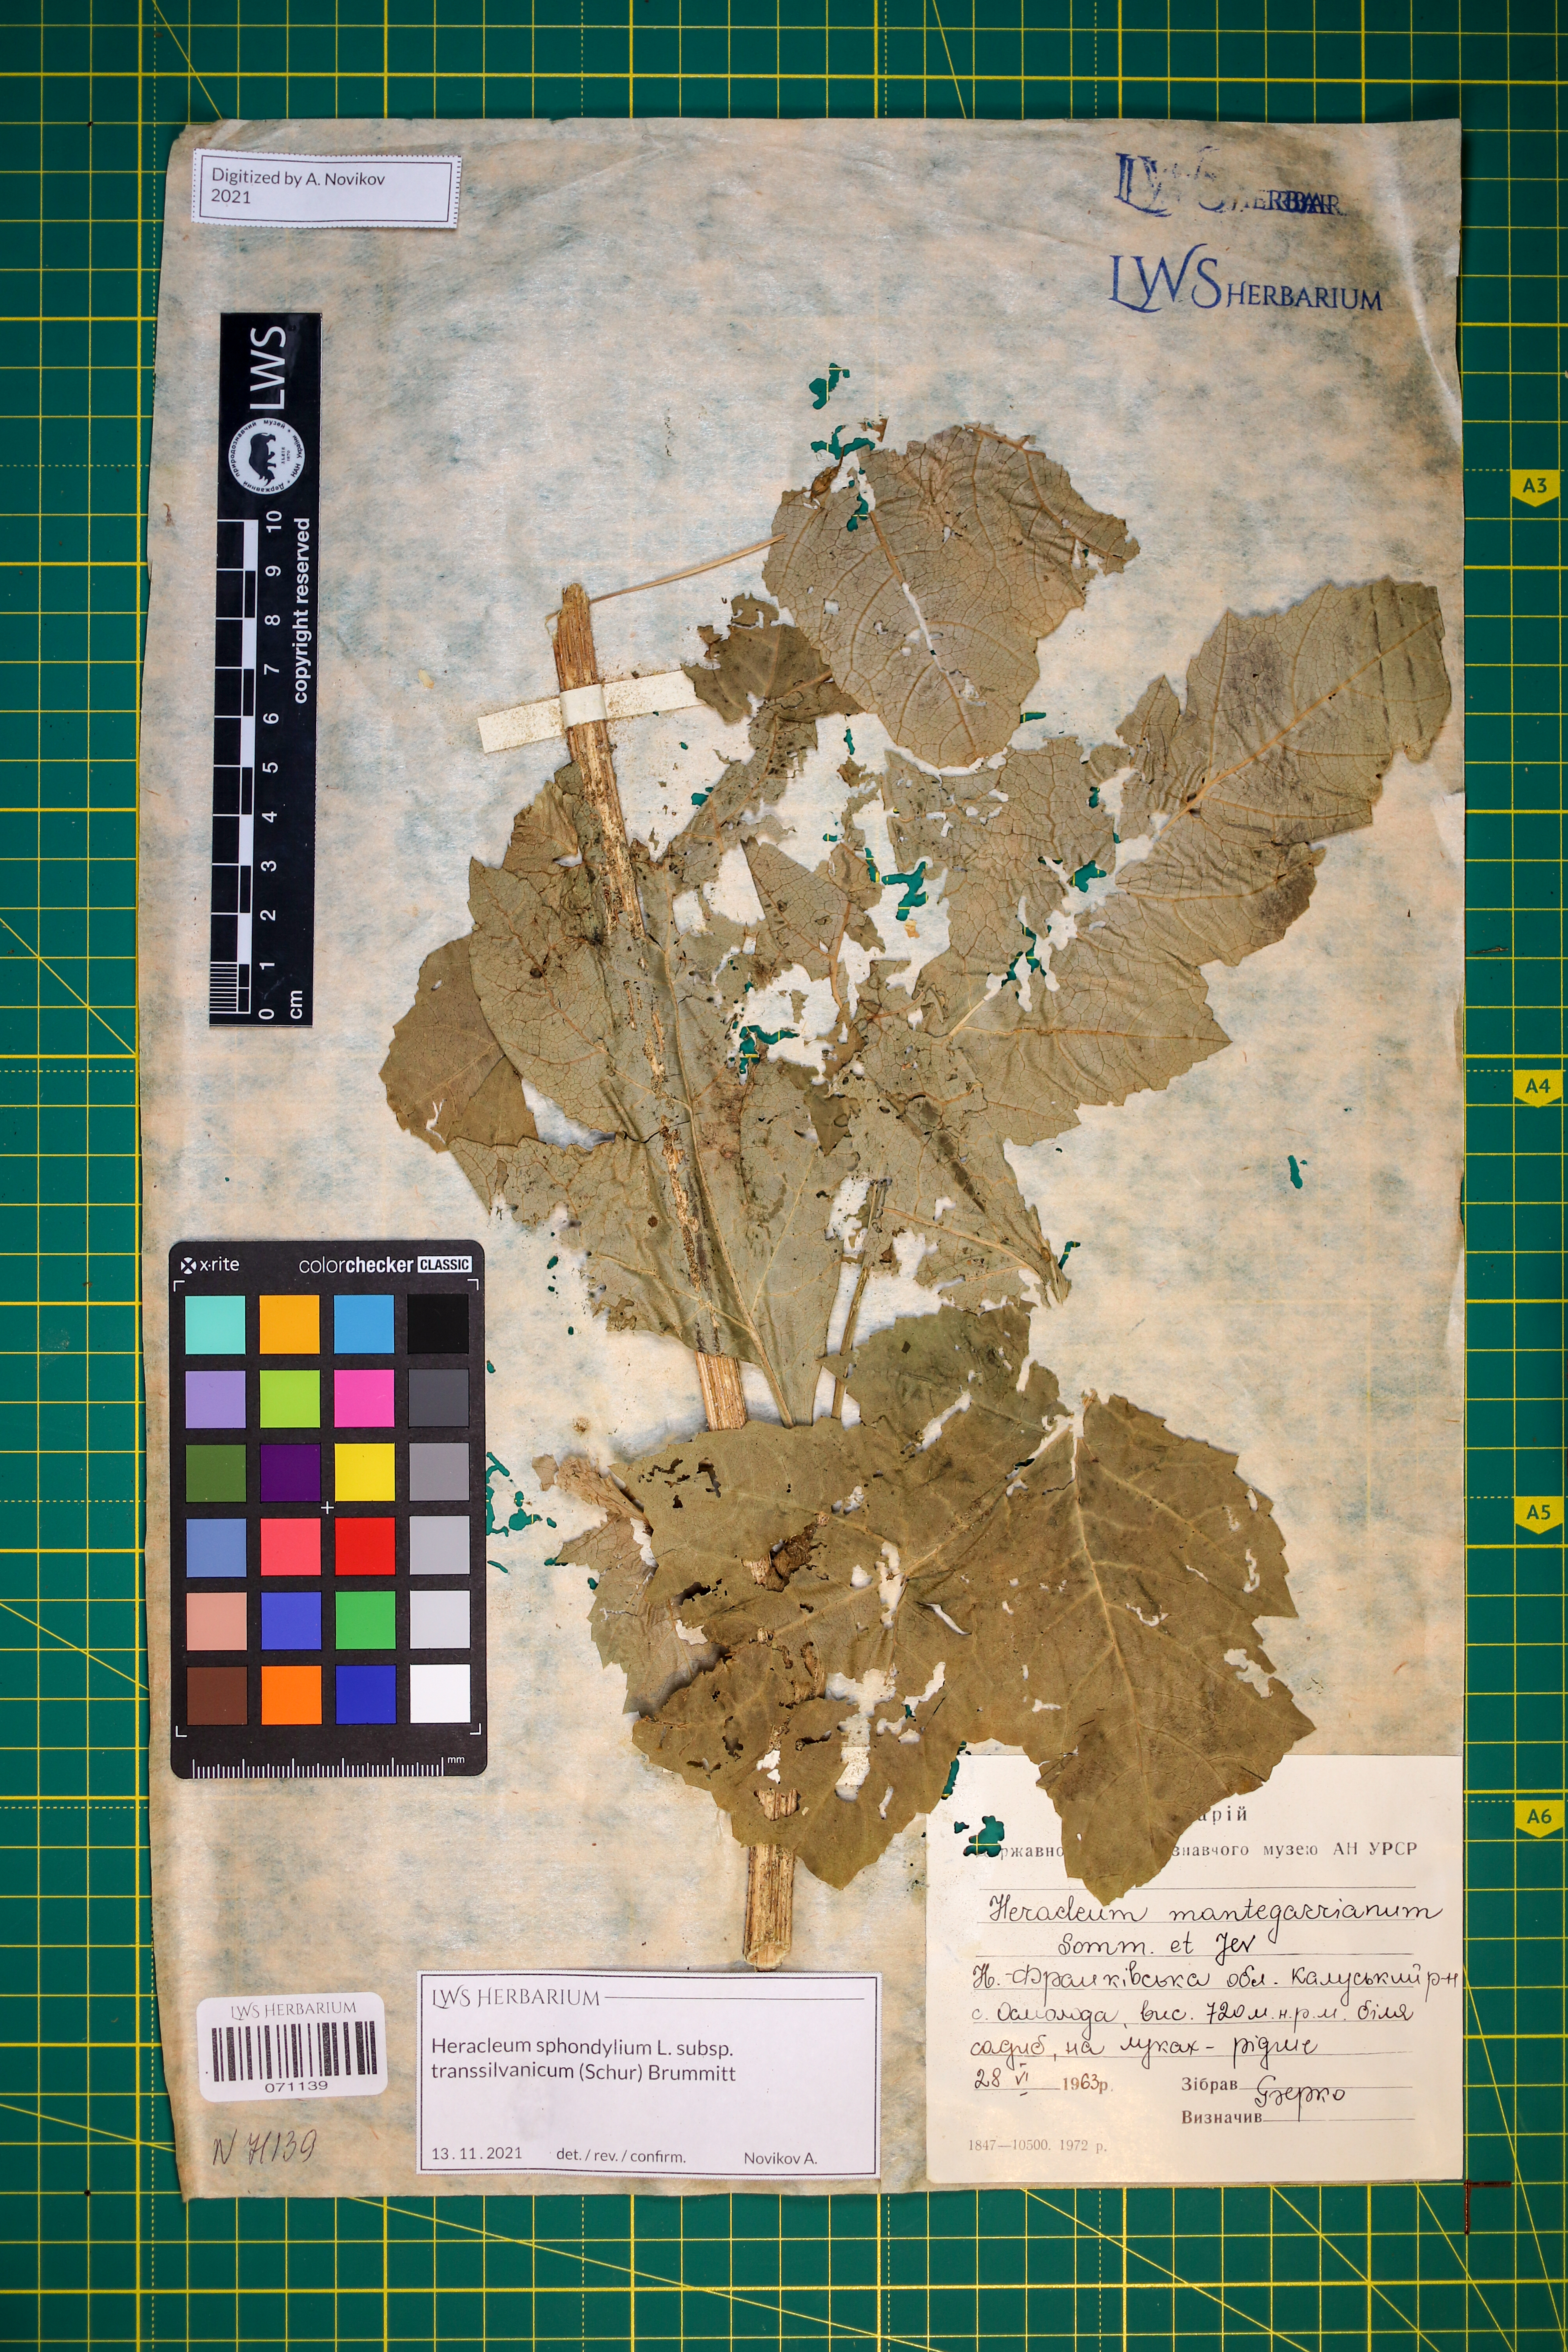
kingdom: Plantae
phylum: Tracheophyta
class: Magnoliopsida
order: Apiales
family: Apiaceae
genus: Heracleum
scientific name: Heracleum sphondylium
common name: Hogweed
